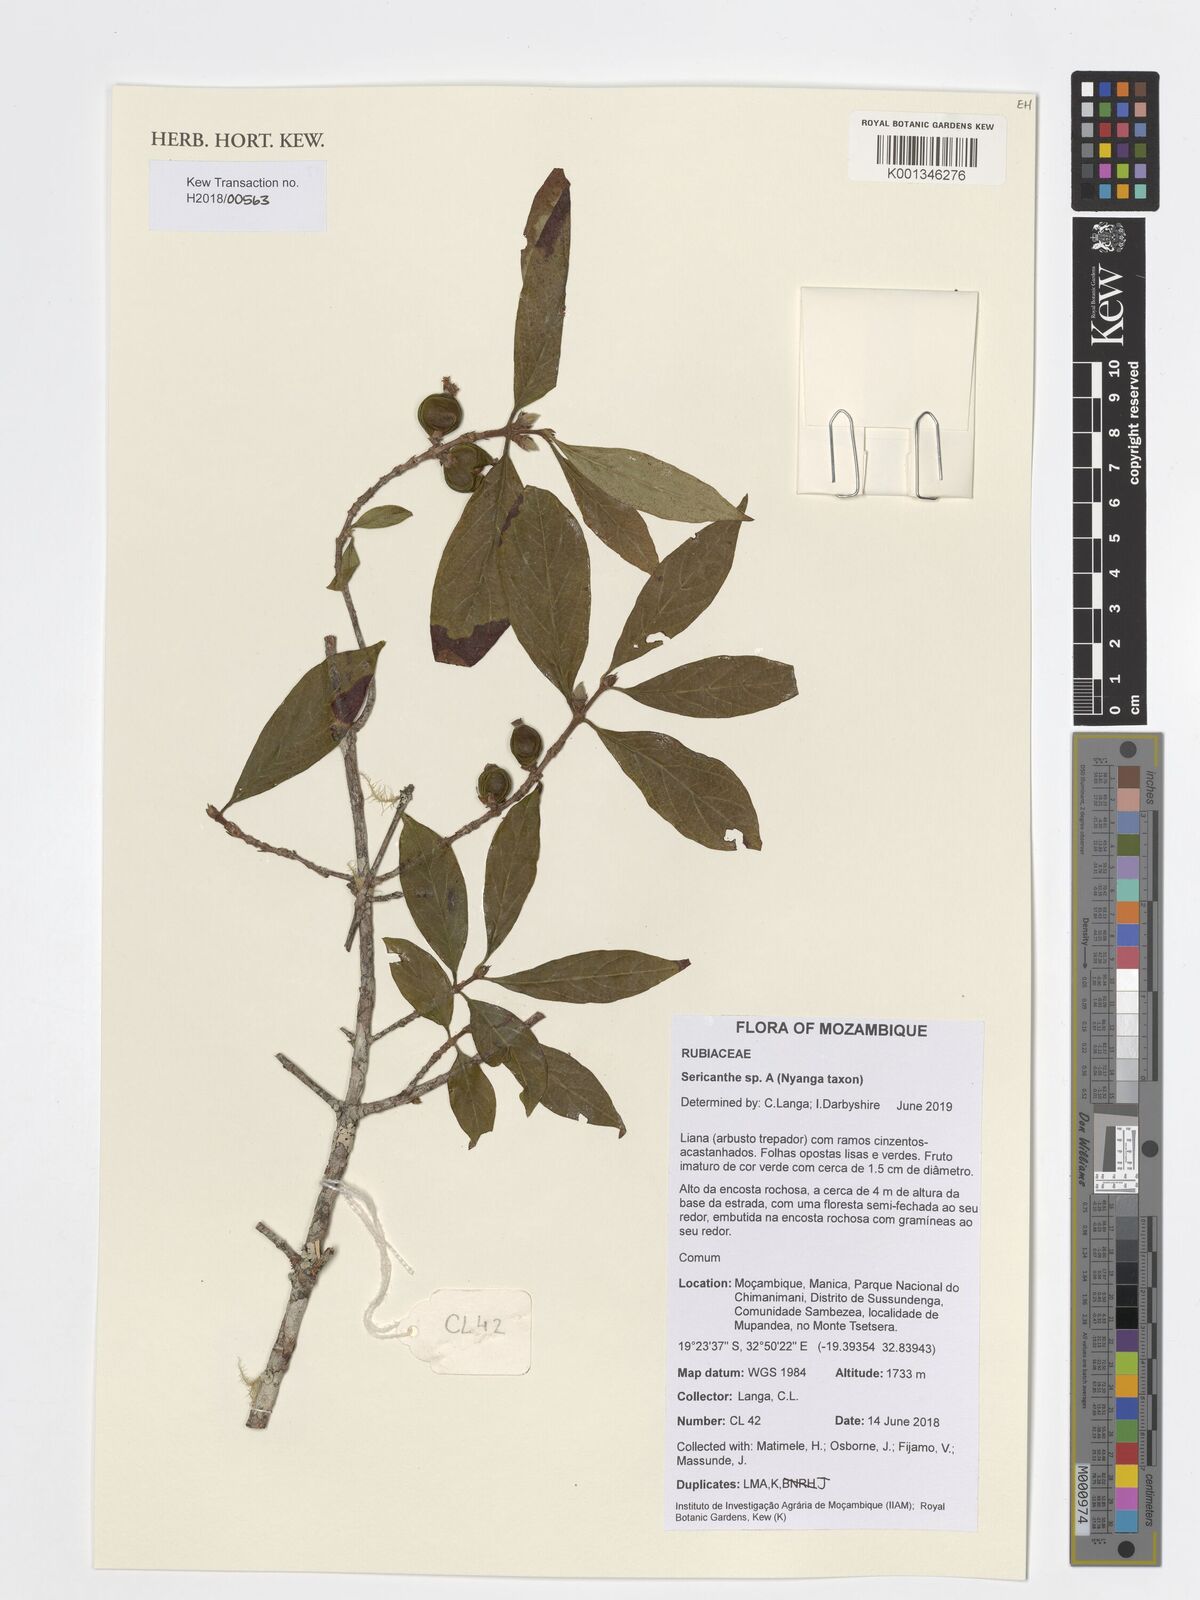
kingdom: Plantae
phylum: Tracheophyta
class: Magnoliopsida
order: Gentianales
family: Rubiaceae
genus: Sericanthe
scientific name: Sericanthe
